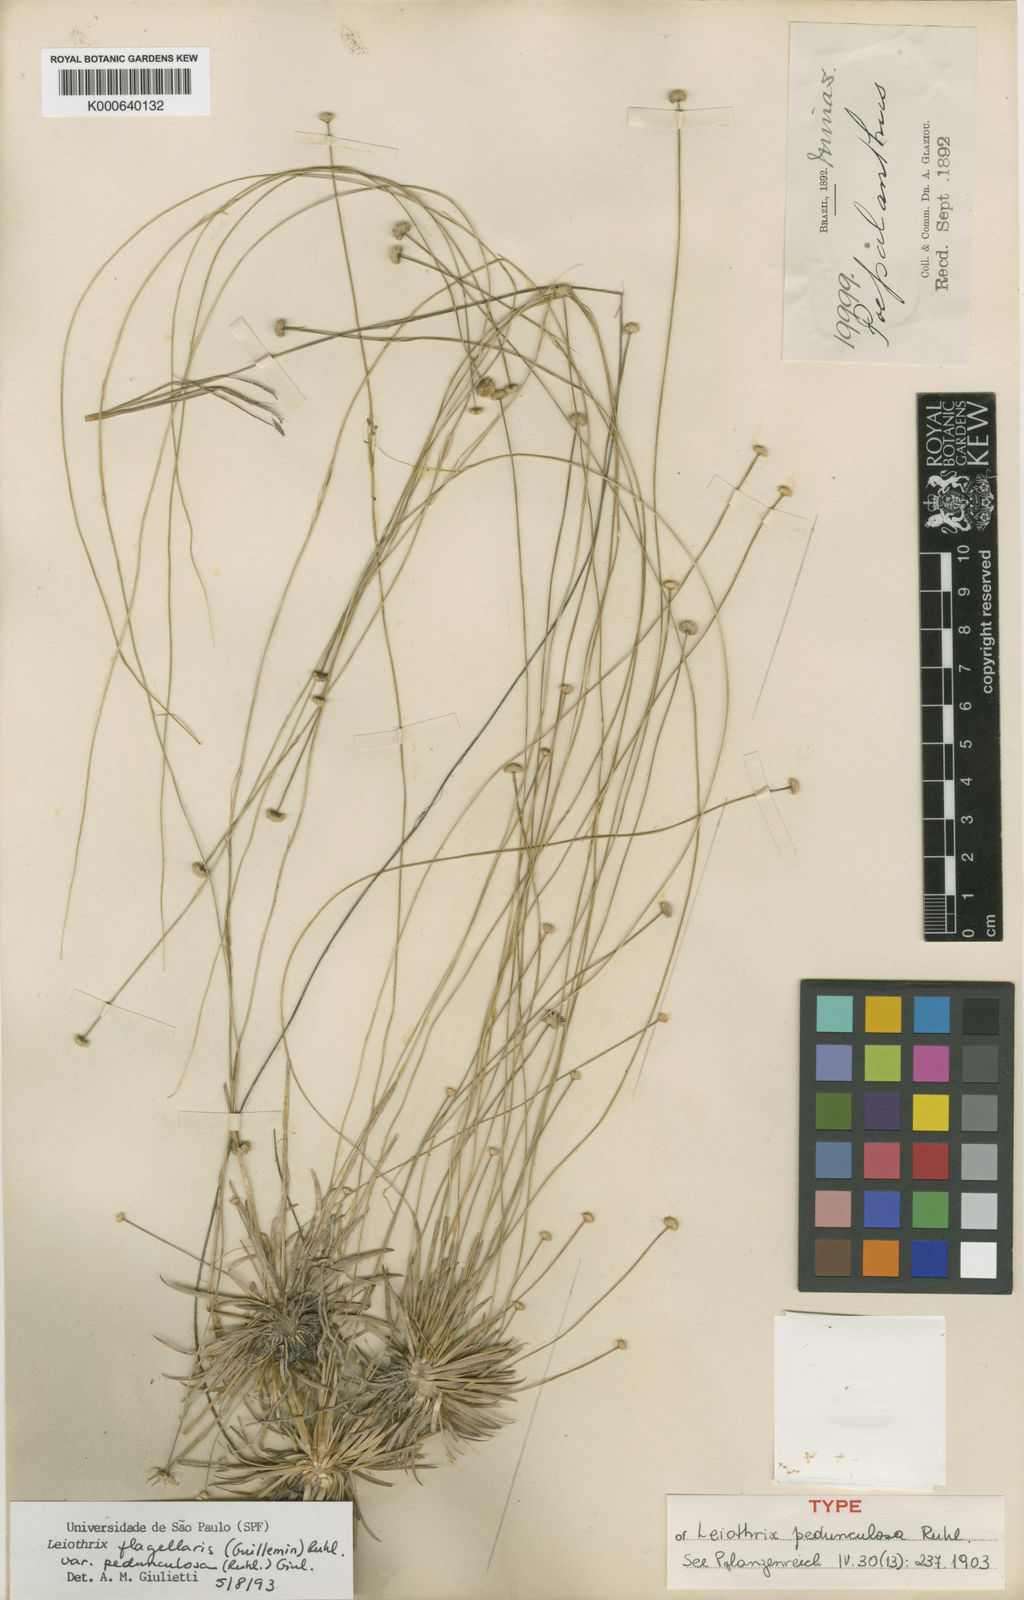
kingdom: Plantae
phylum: Tracheophyta
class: Liliopsida
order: Poales
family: Eriocaulaceae
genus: Leiothrix
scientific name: Leiothrix flagellaris
